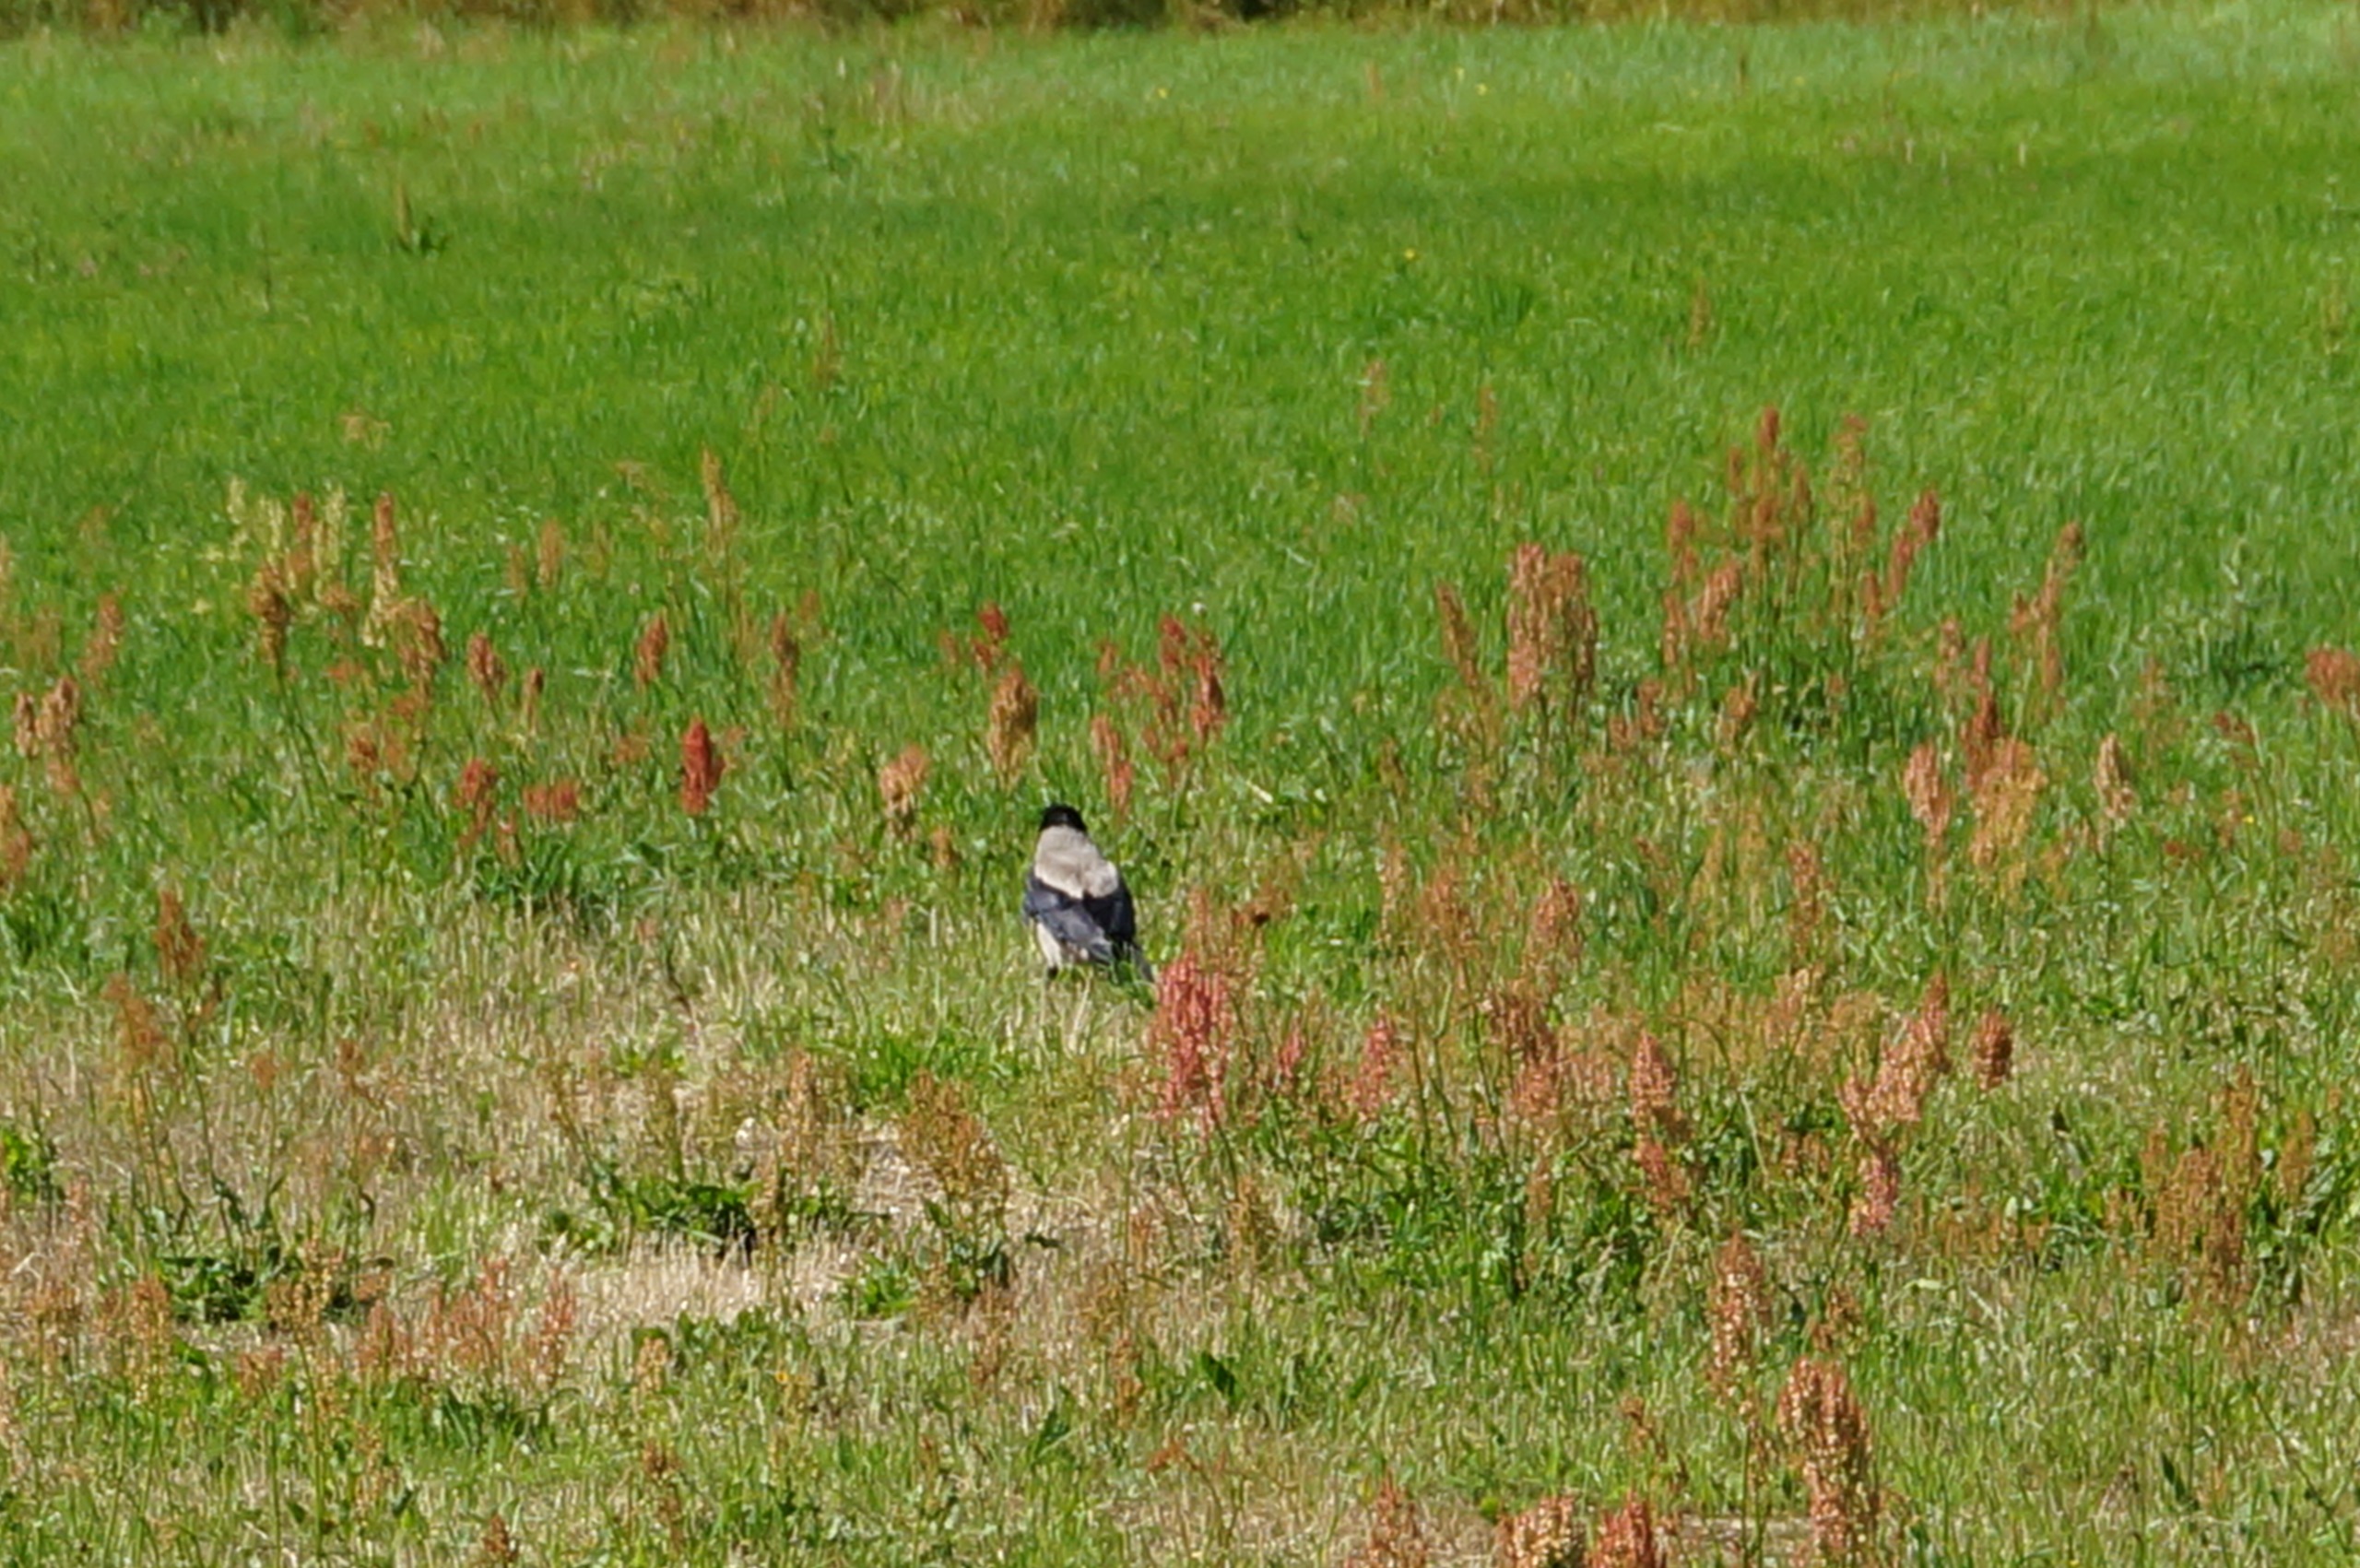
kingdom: Animalia
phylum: Chordata
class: Aves
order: Passeriformes
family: Corvidae
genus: Corvus
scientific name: Corvus cornix
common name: Gråkrage
